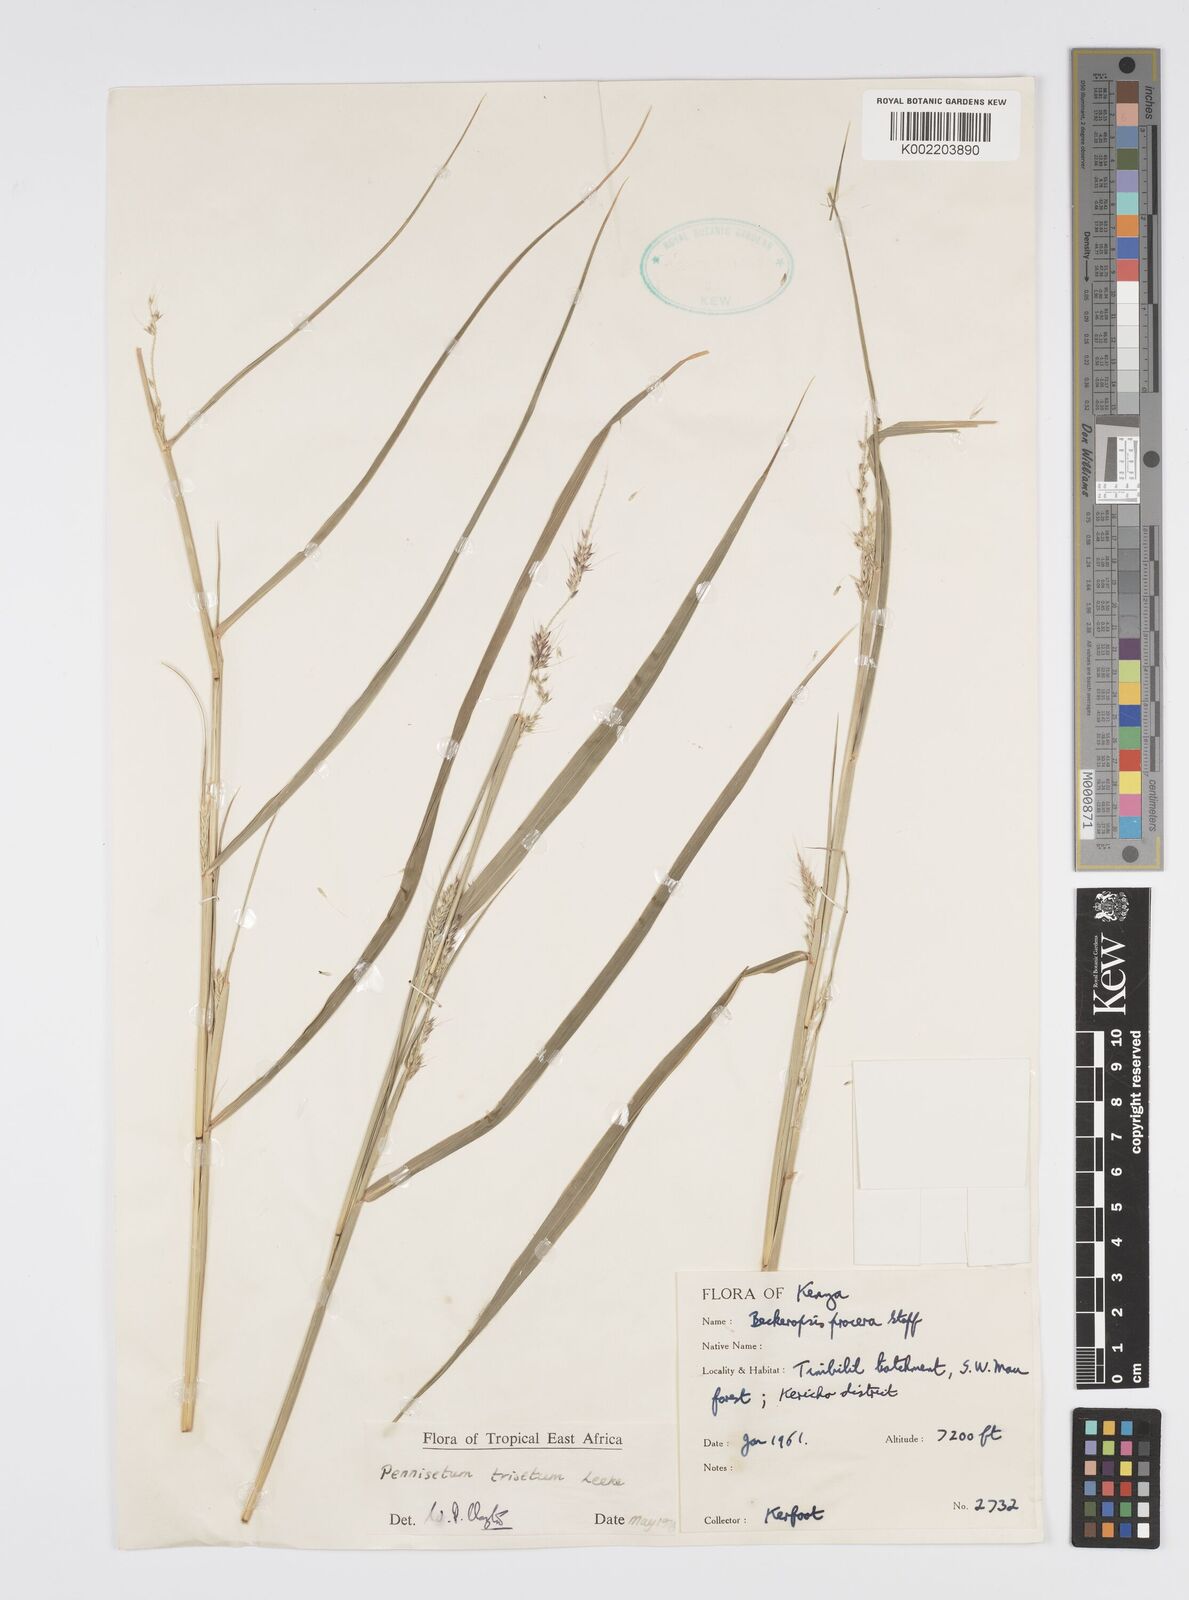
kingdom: Plantae
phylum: Tracheophyta
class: Liliopsida
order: Poales
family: Poaceae
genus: Cenchrus
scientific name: Cenchrus trisetus
